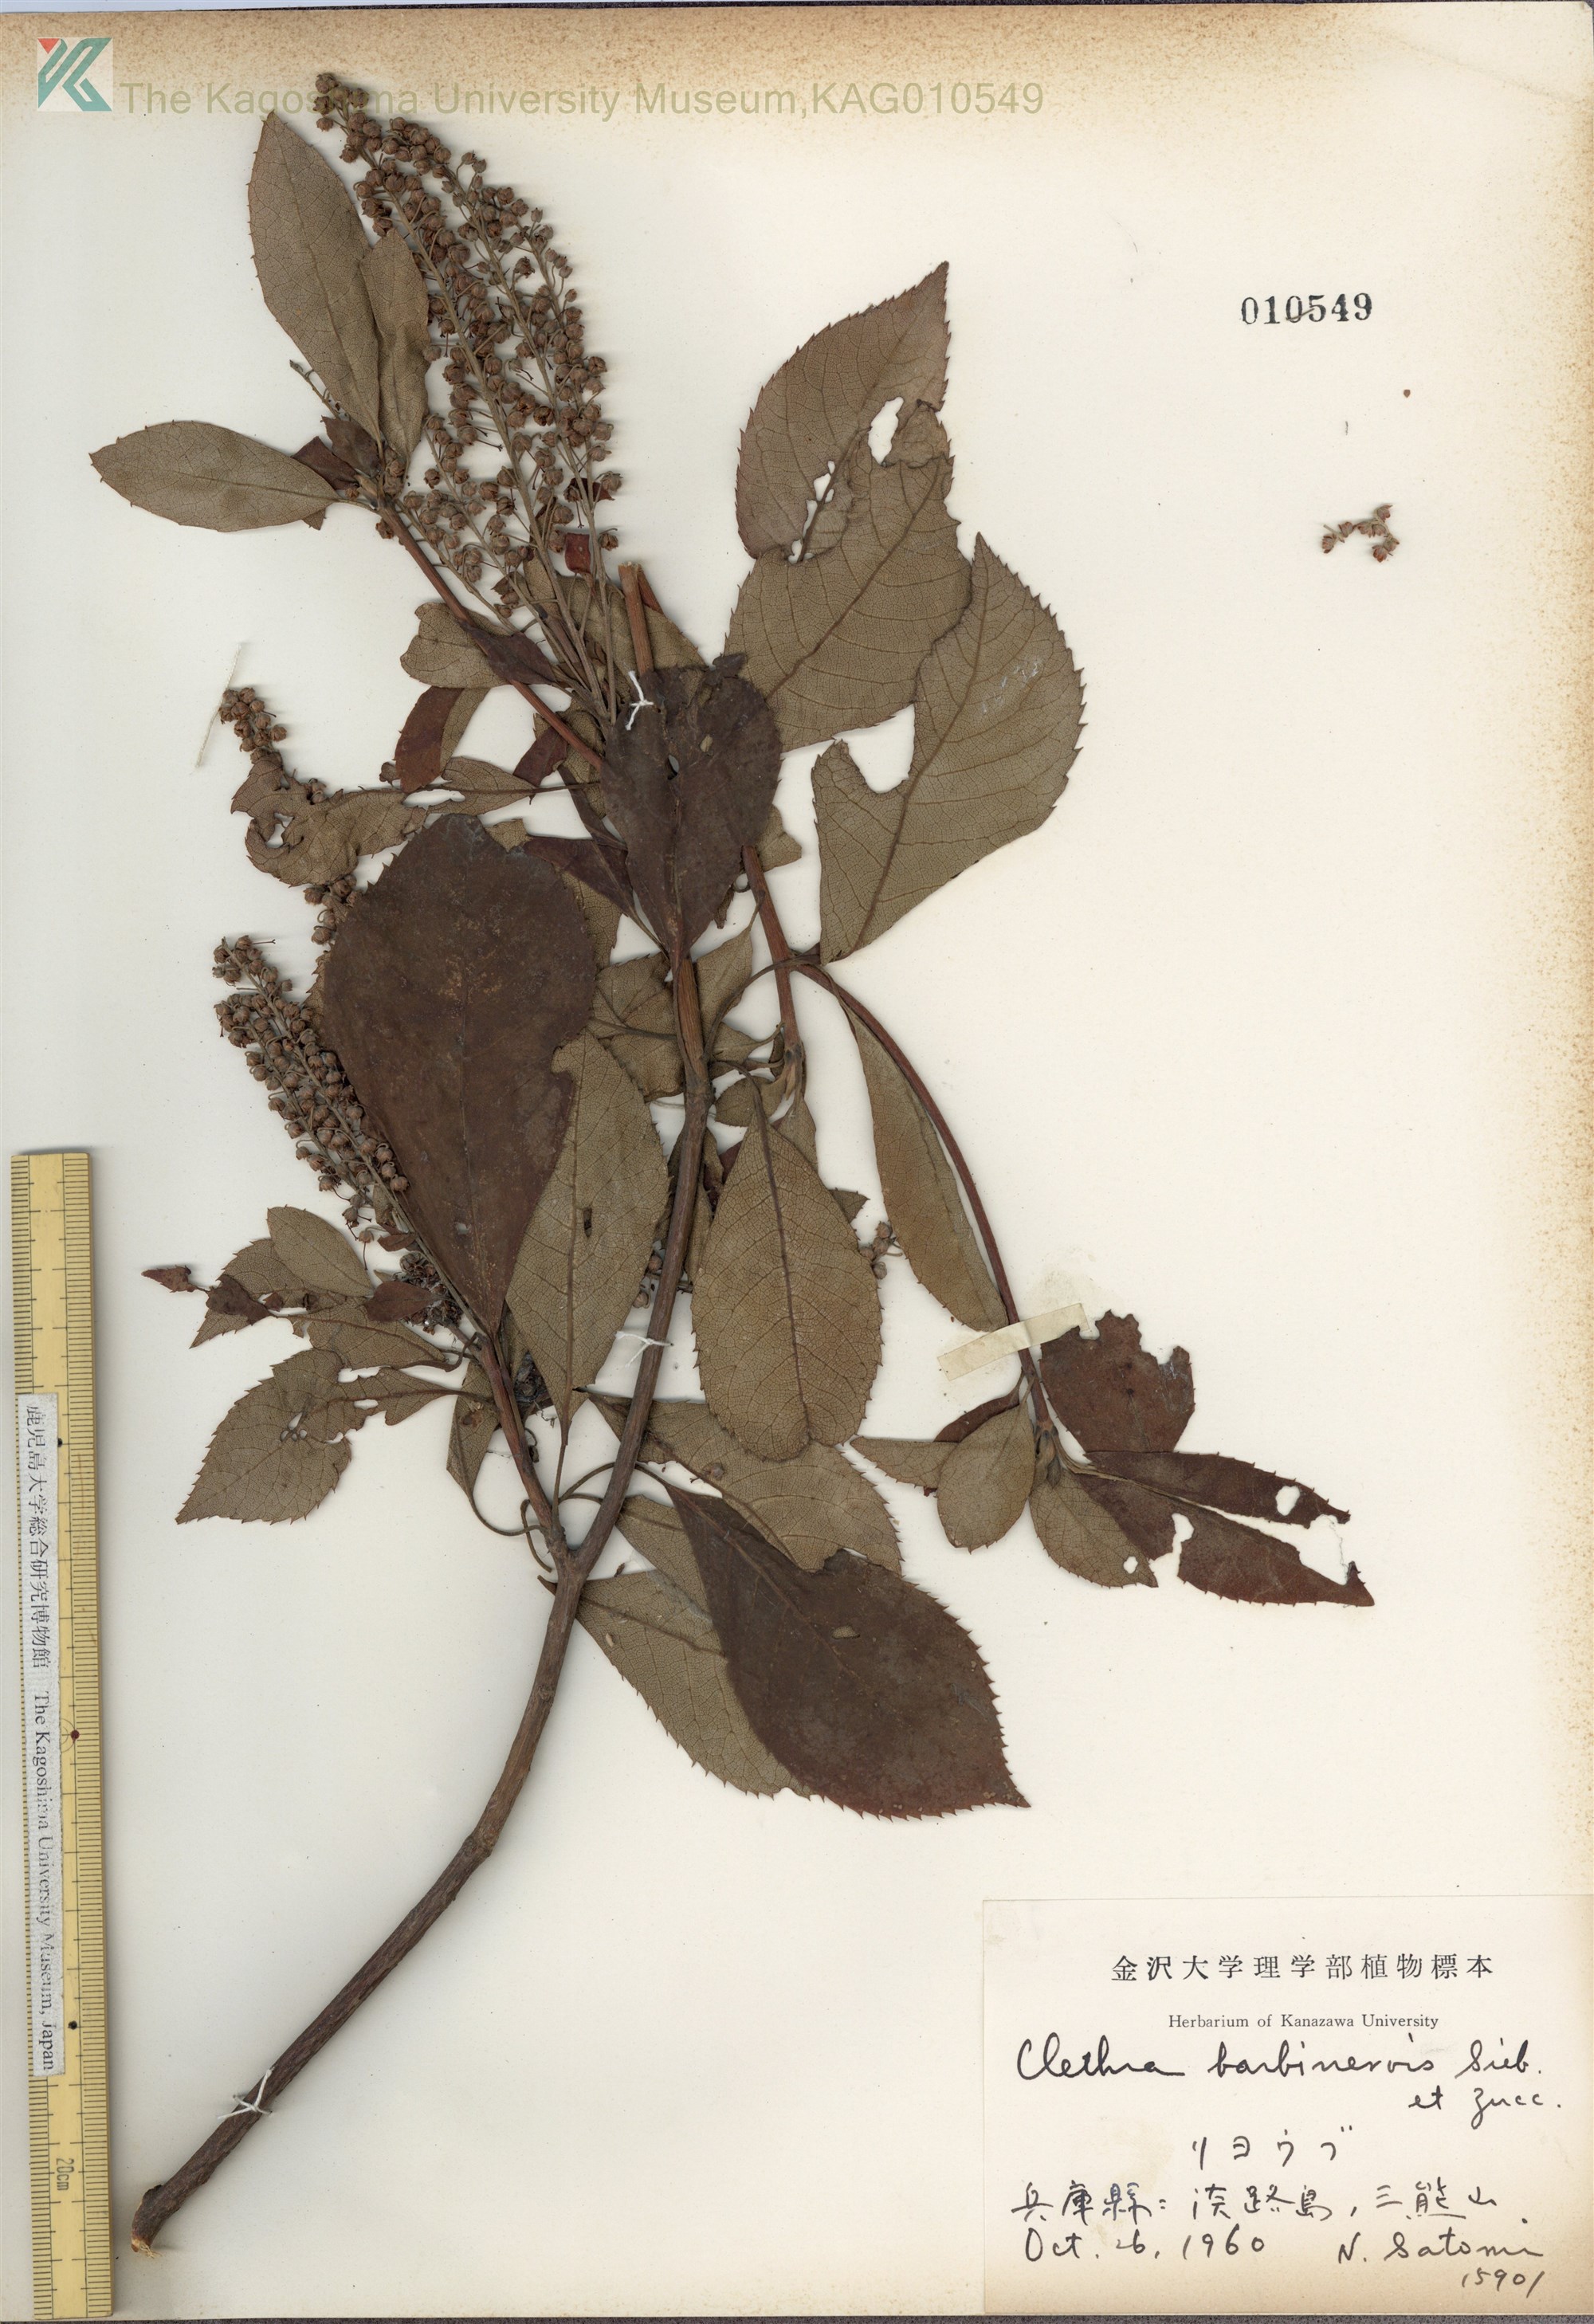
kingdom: Plantae
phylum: Tracheophyta
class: Magnoliopsida
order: Ericales
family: Clethraceae
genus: Clethra
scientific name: Clethra barbinervis
